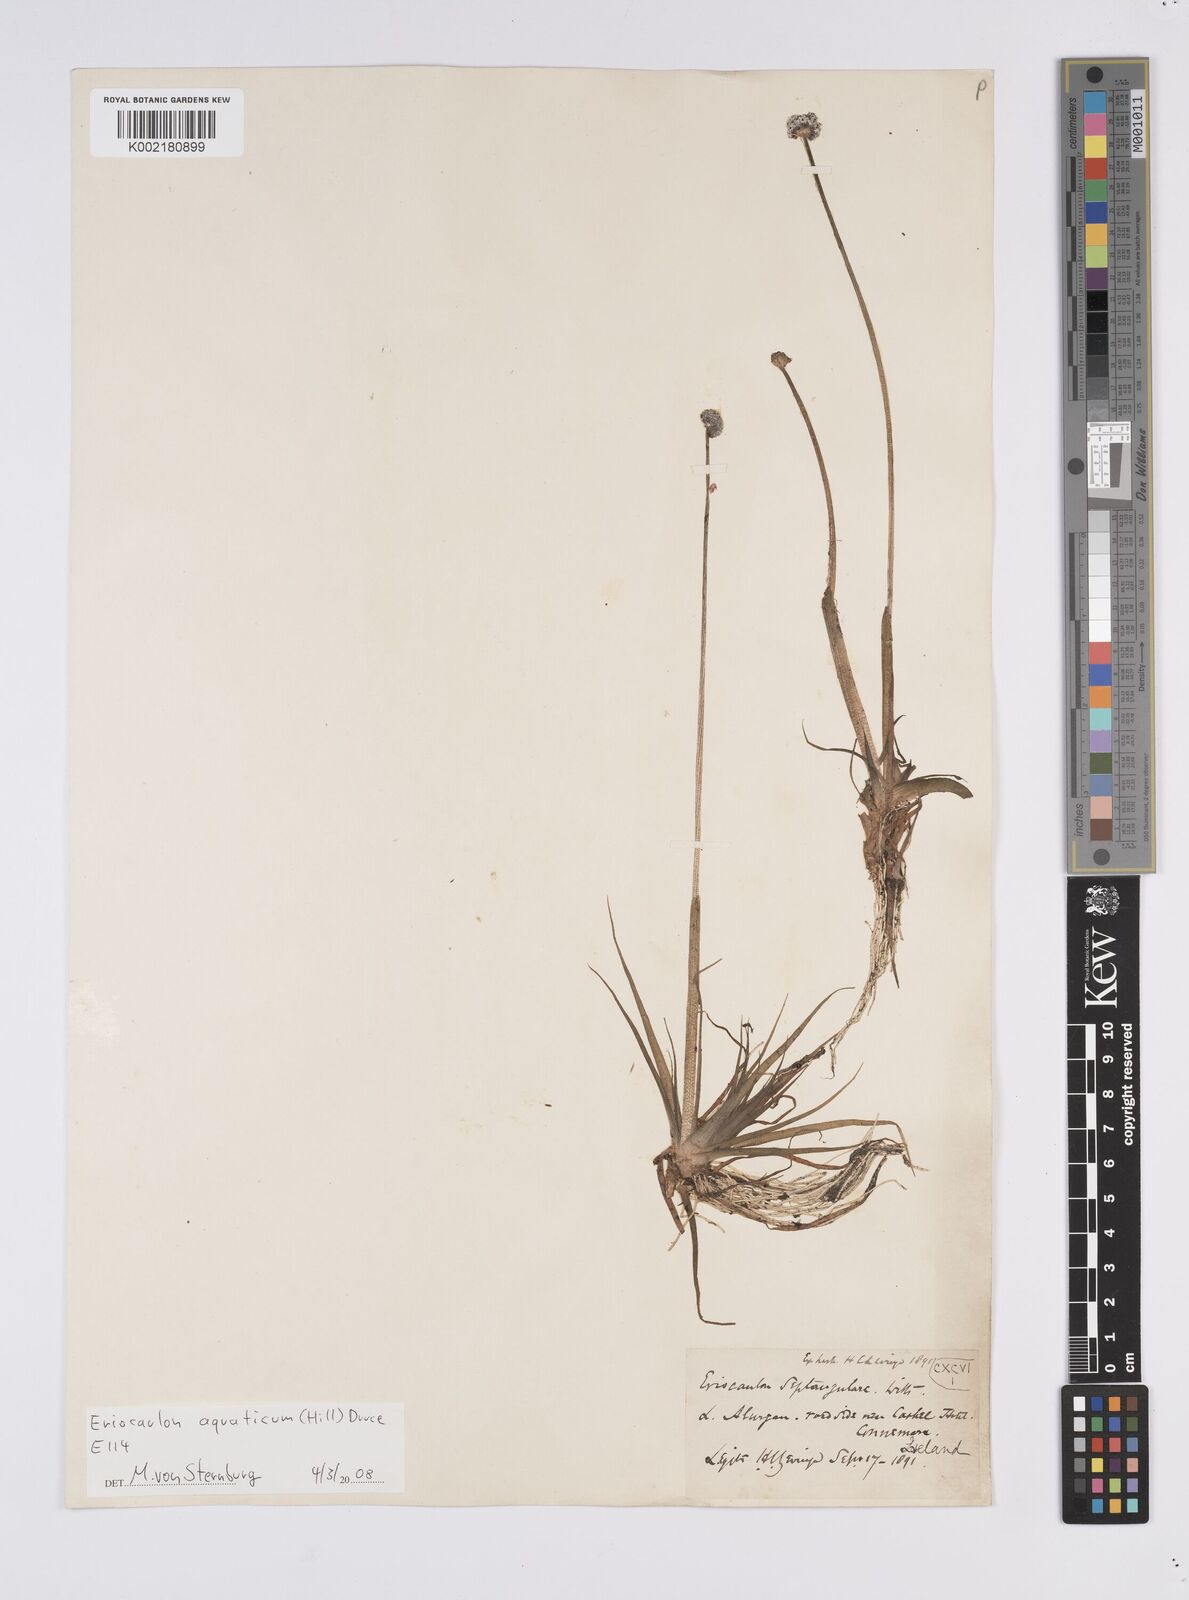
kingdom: Plantae
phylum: Tracheophyta
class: Liliopsida
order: Poales
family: Eriocaulaceae
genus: Eriocaulon
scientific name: Eriocaulon aquaticum
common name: Pipewort
